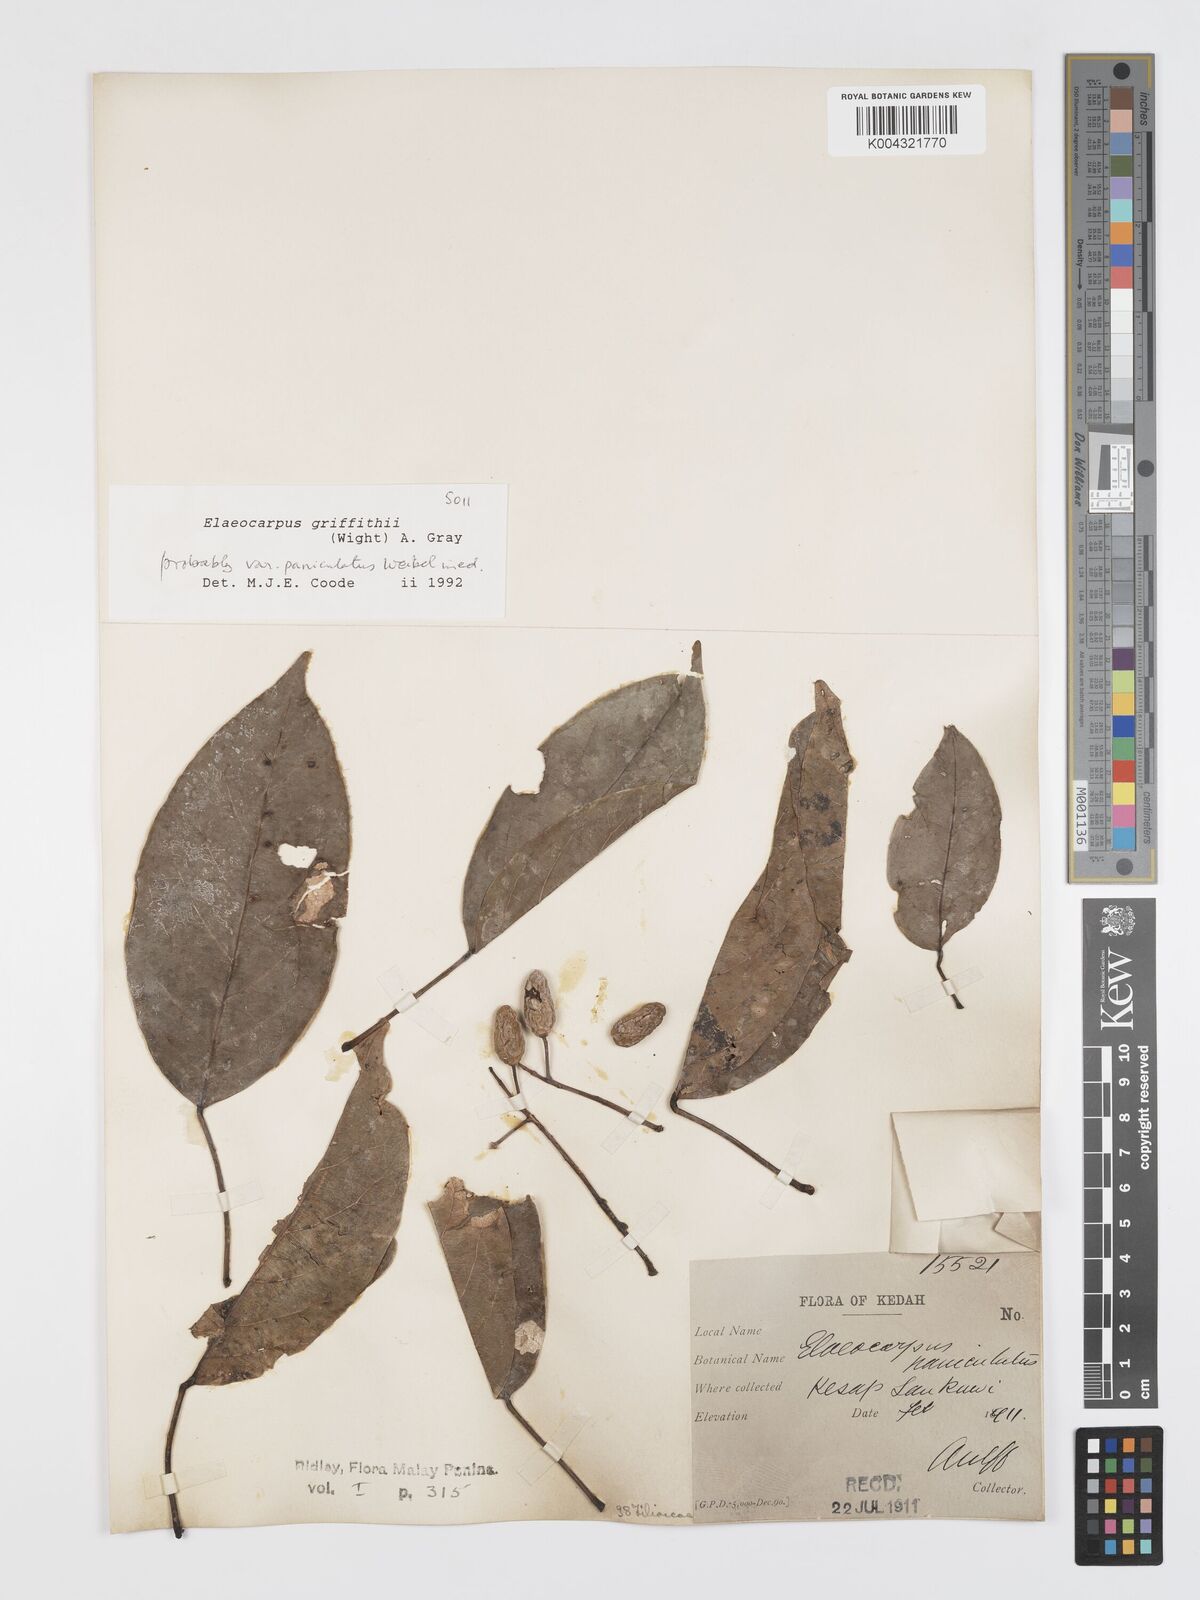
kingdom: Plantae
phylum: Tracheophyta
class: Magnoliopsida
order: Oxalidales
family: Elaeocarpaceae
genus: Elaeocarpus
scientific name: Elaeocarpus griffithii
